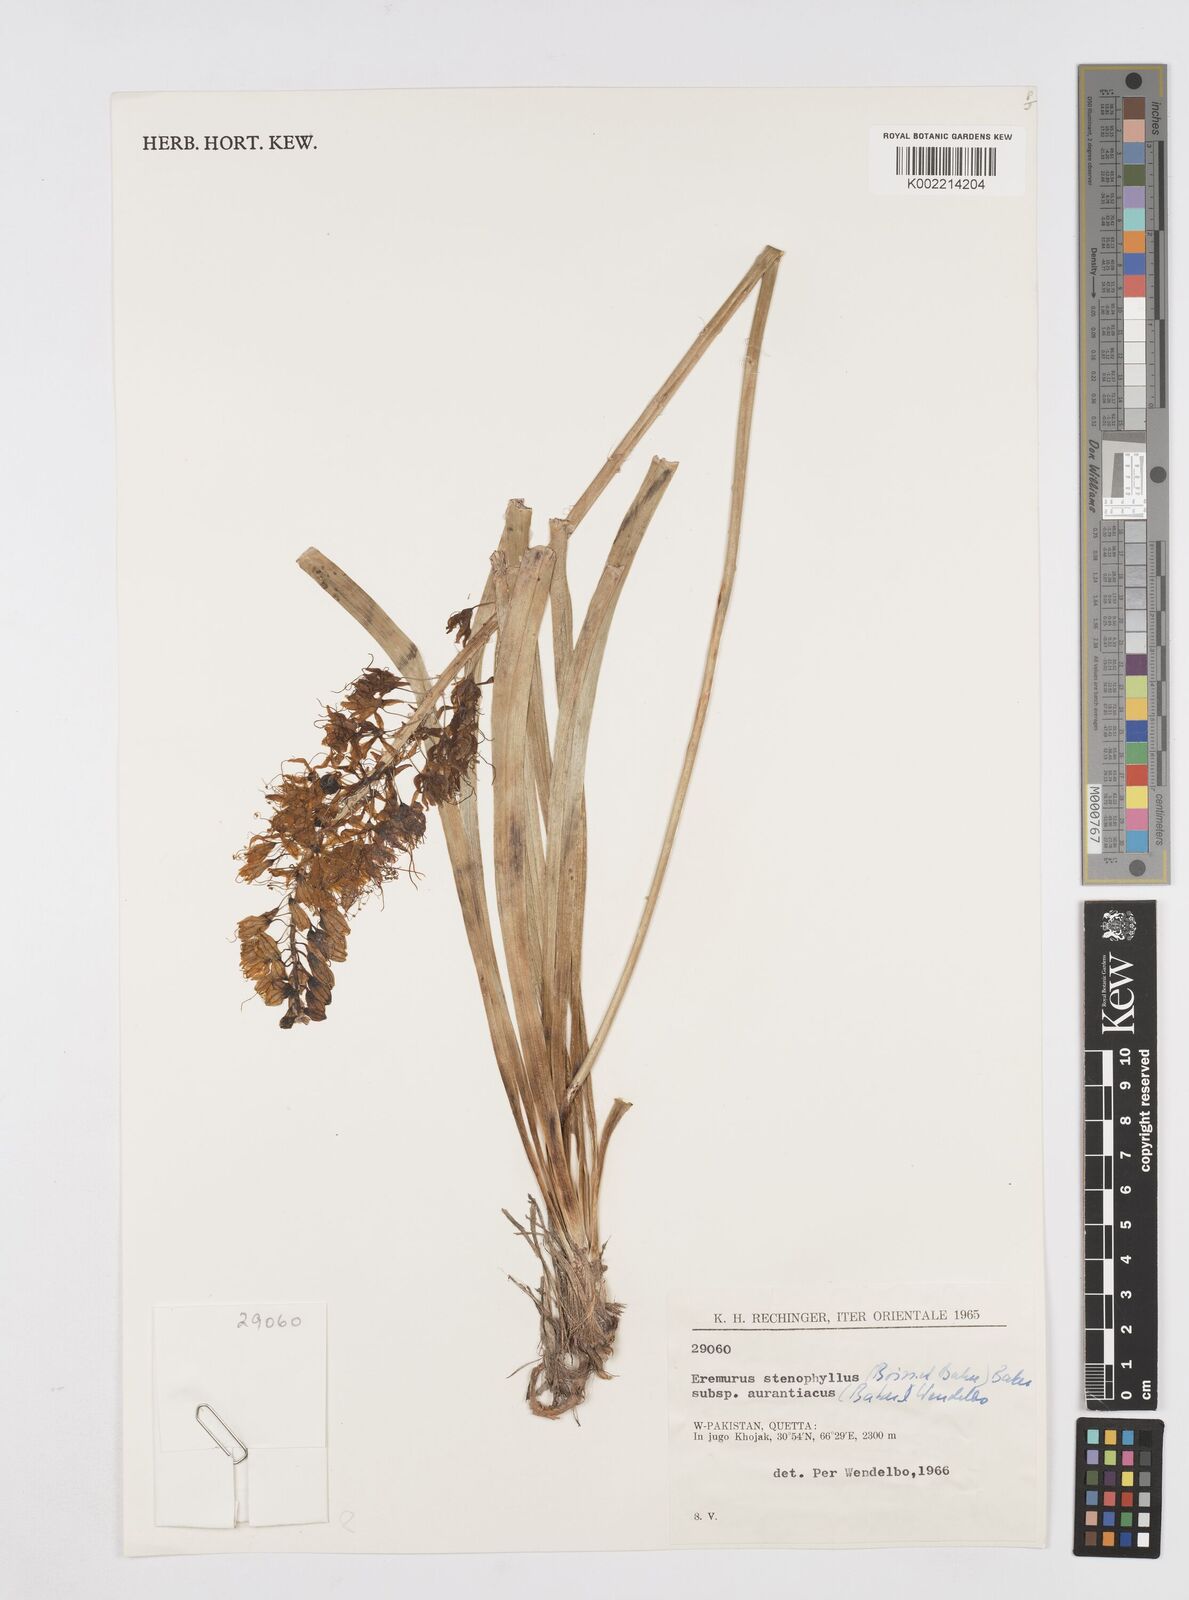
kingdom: Plantae
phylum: Tracheophyta
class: Liliopsida
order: Asparagales
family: Asphodelaceae
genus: Eremurus
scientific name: Eremurus stenophyllus
